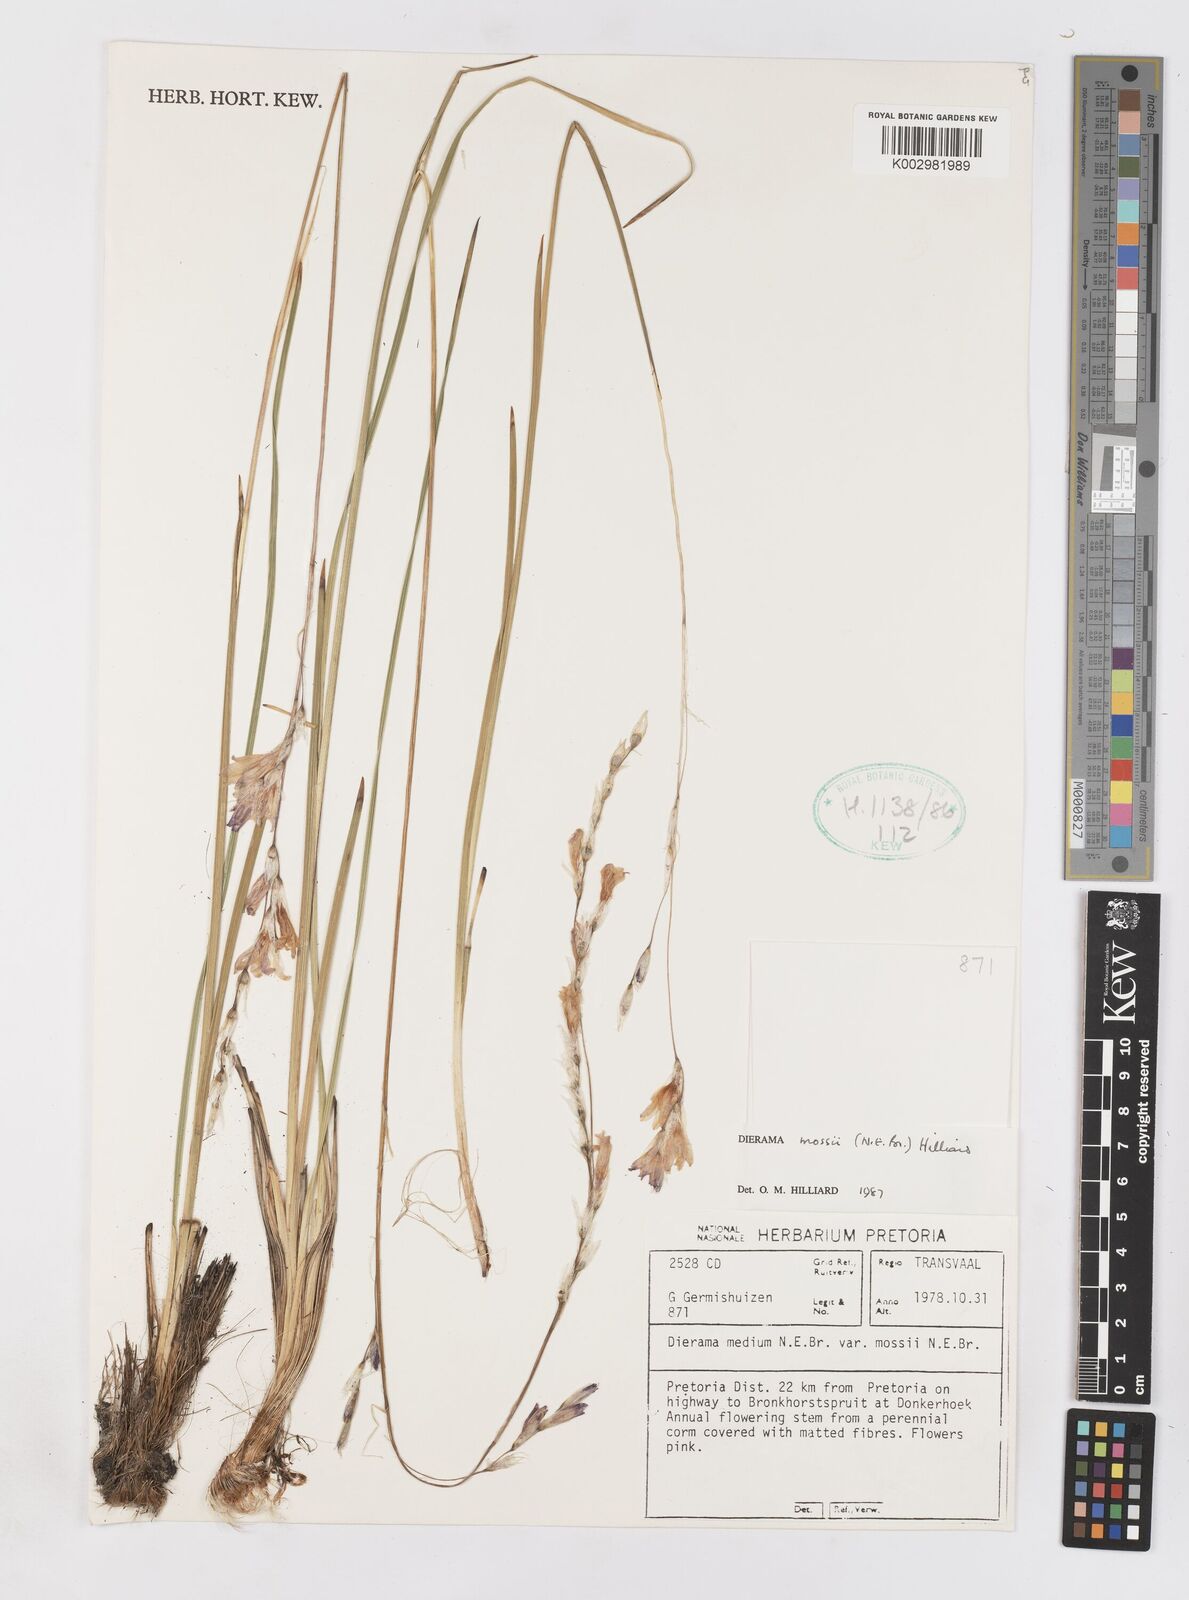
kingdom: Plantae
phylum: Tracheophyta
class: Liliopsida
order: Asparagales
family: Iridaceae
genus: Dierama
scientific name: Dierama mossii
